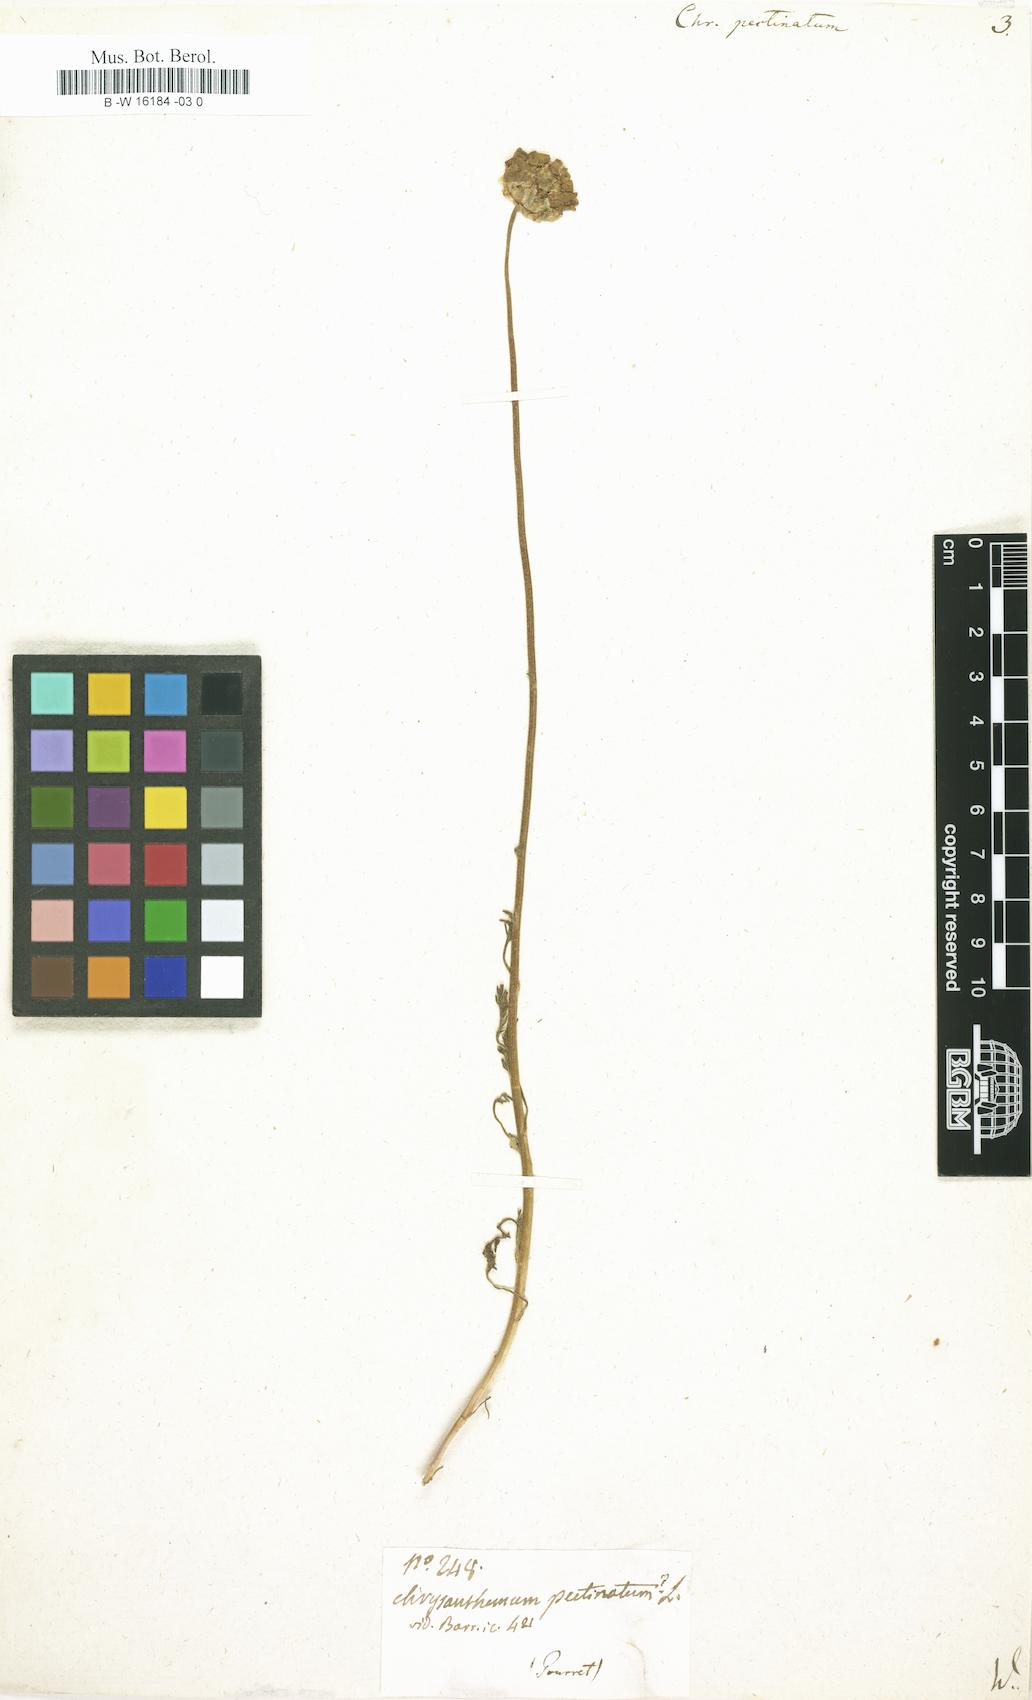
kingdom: Plantae
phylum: Tracheophyta
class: Magnoliopsida
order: Asterales
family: Asteraceae
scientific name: Asteraceae
